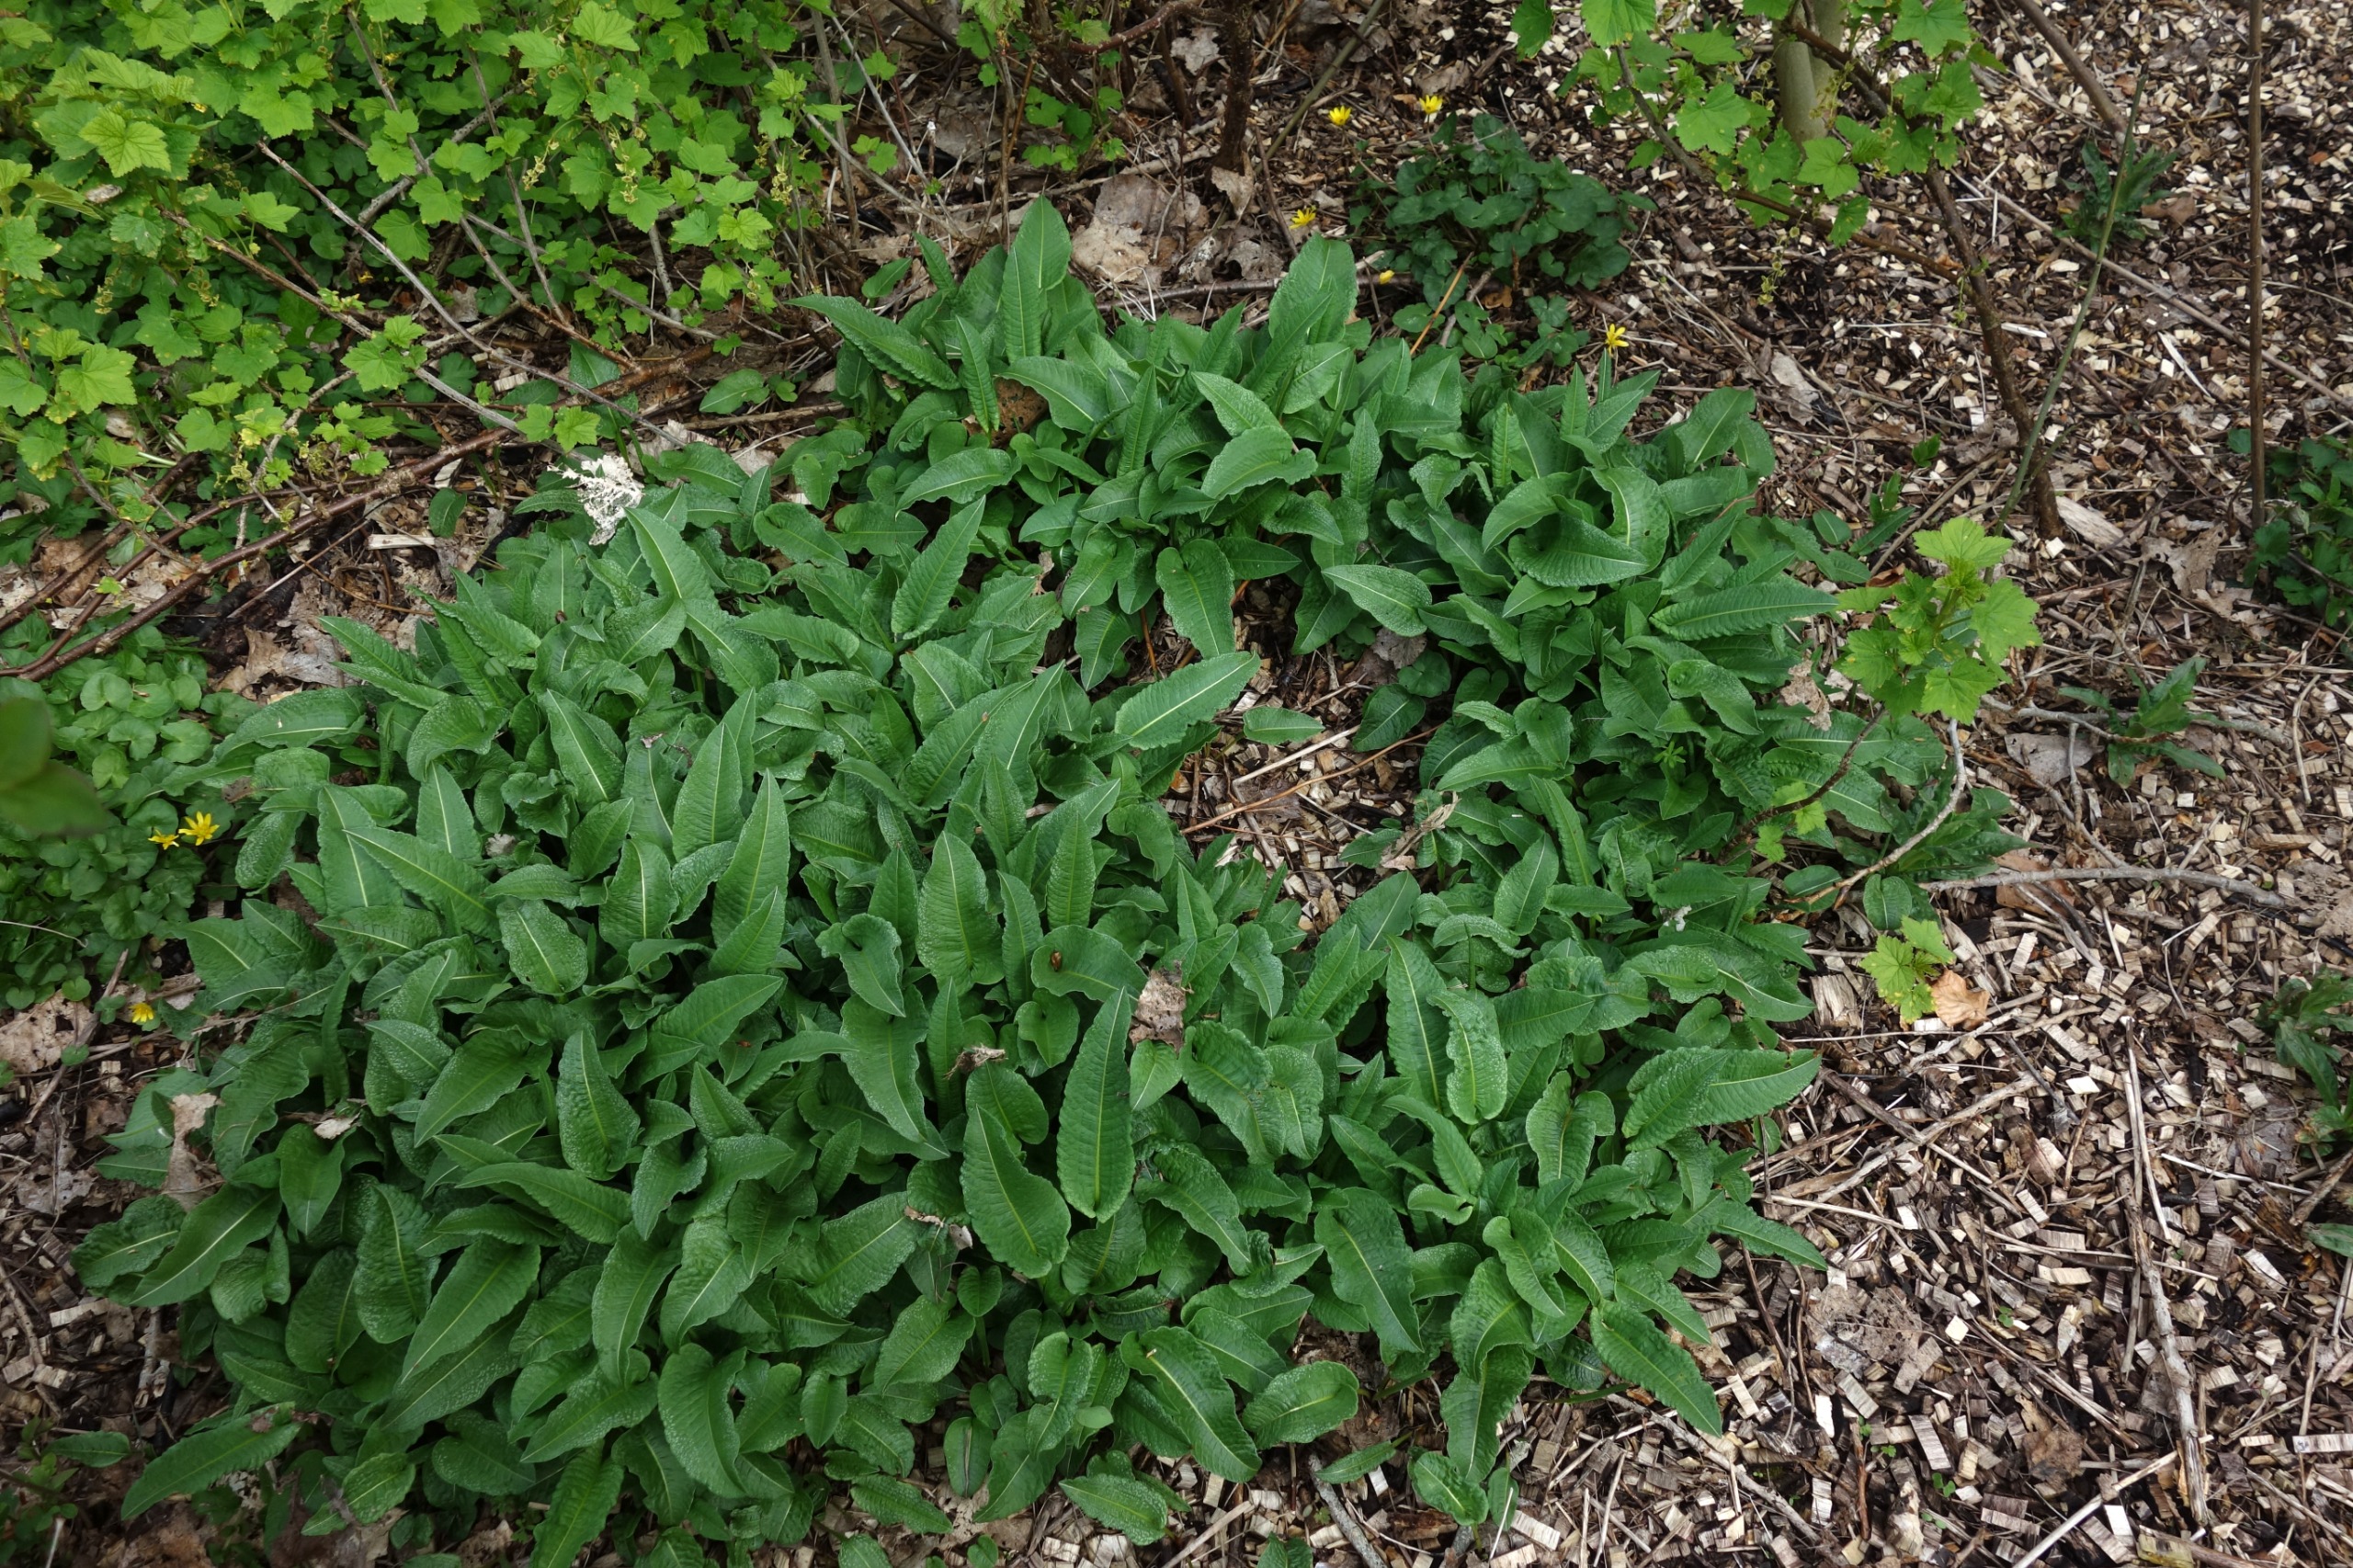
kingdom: Plantae
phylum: Tracheophyta
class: Magnoliopsida
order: Caryophyllales
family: Polygonaceae
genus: Bistorta
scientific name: Bistorta officinalis
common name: Slangeurt
